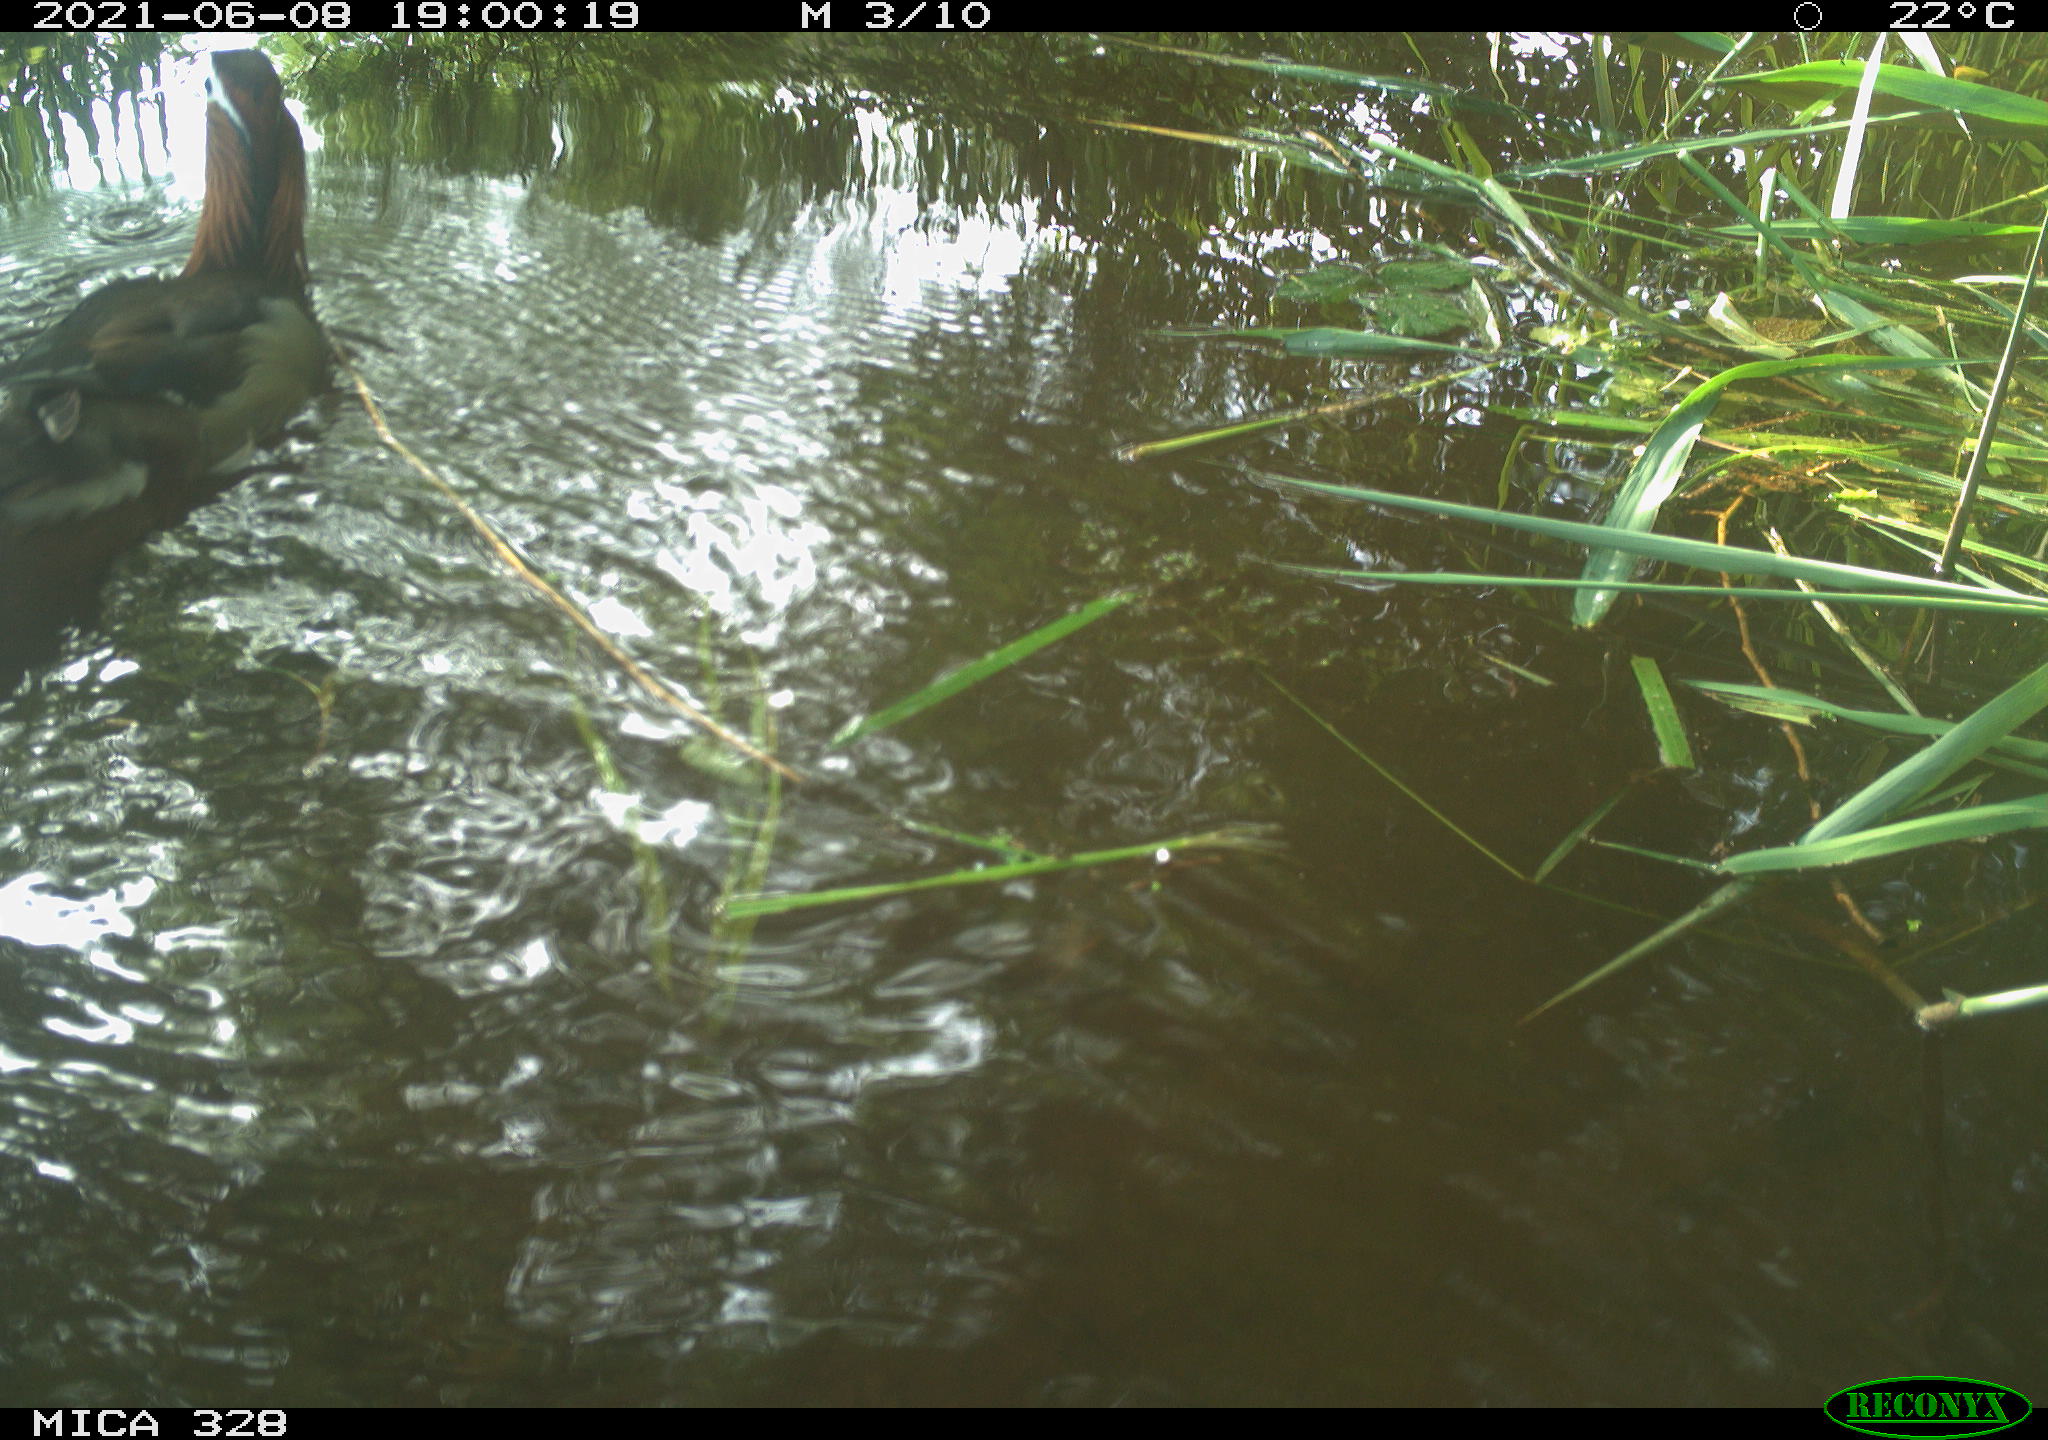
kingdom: Animalia
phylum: Chordata
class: Aves
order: Anseriformes
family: Anatidae
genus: Aix
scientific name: Aix galericulata
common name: Mandarin duck
